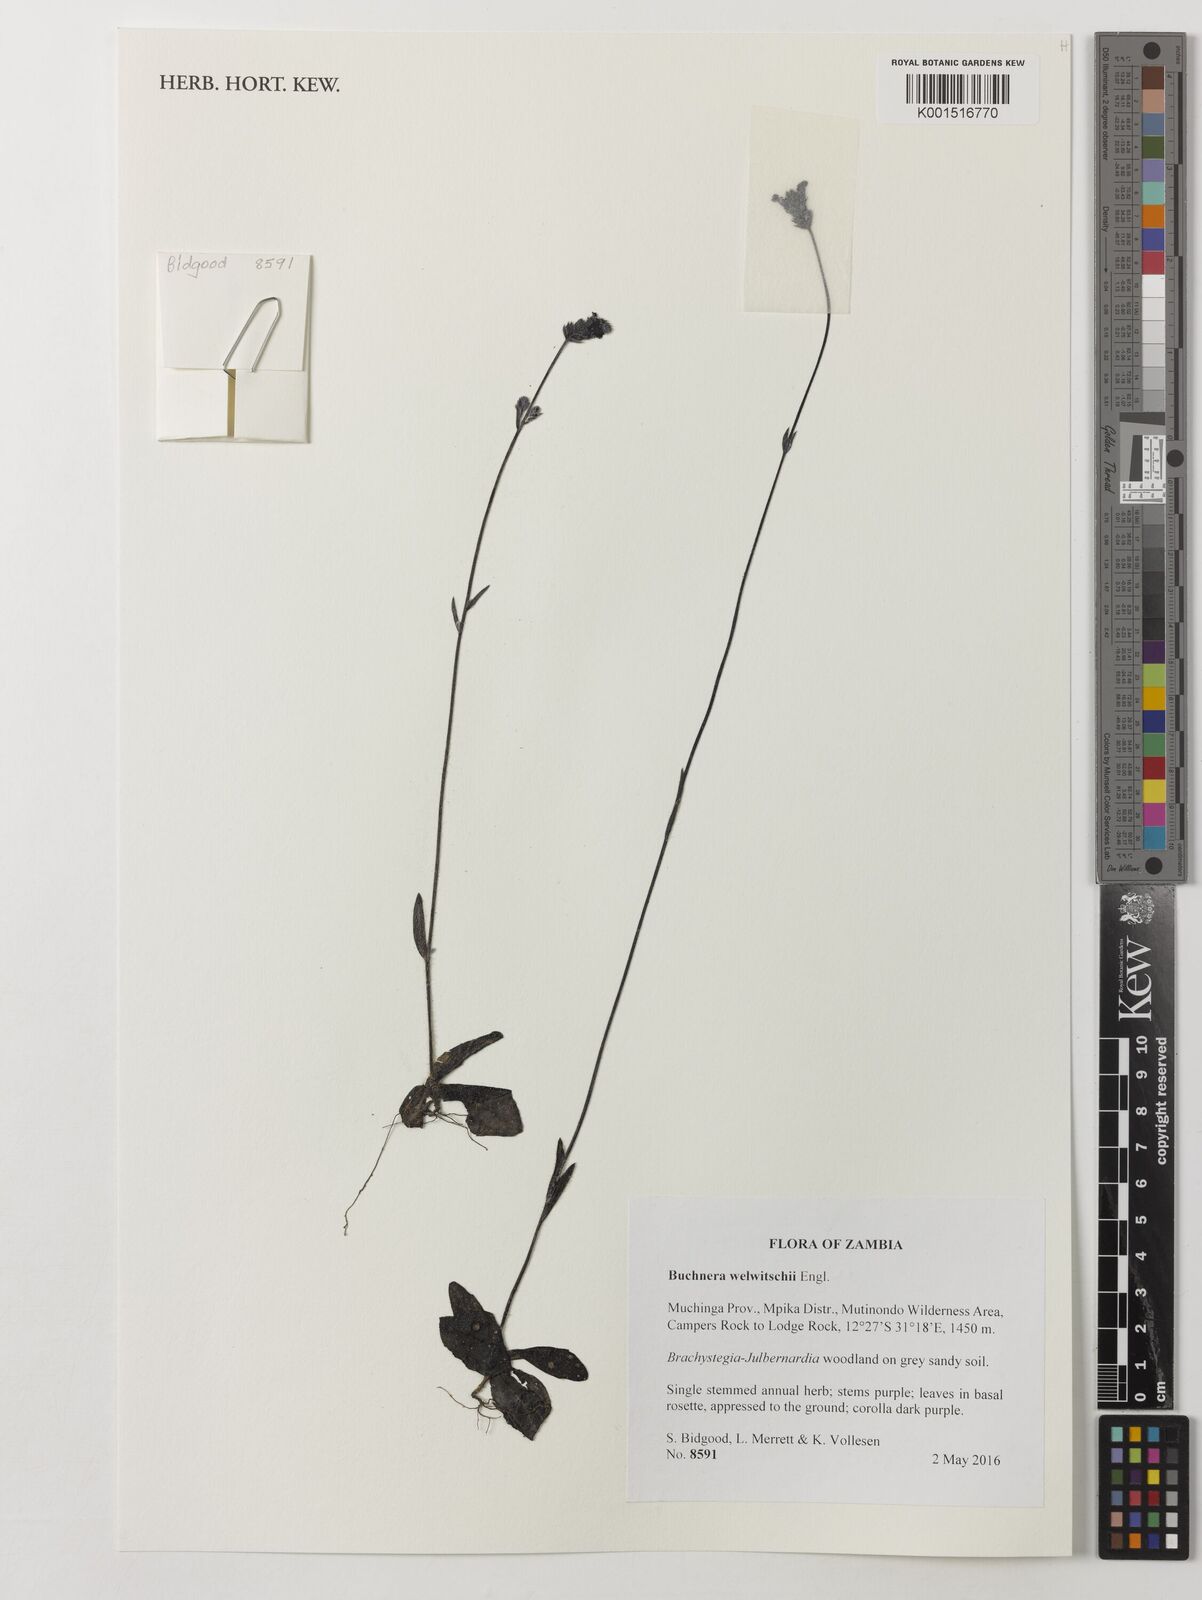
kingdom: Plantae
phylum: Tracheophyta
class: Magnoliopsida
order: Lamiales
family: Orobanchaceae
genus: Buchnera
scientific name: Buchnera welwitschii
